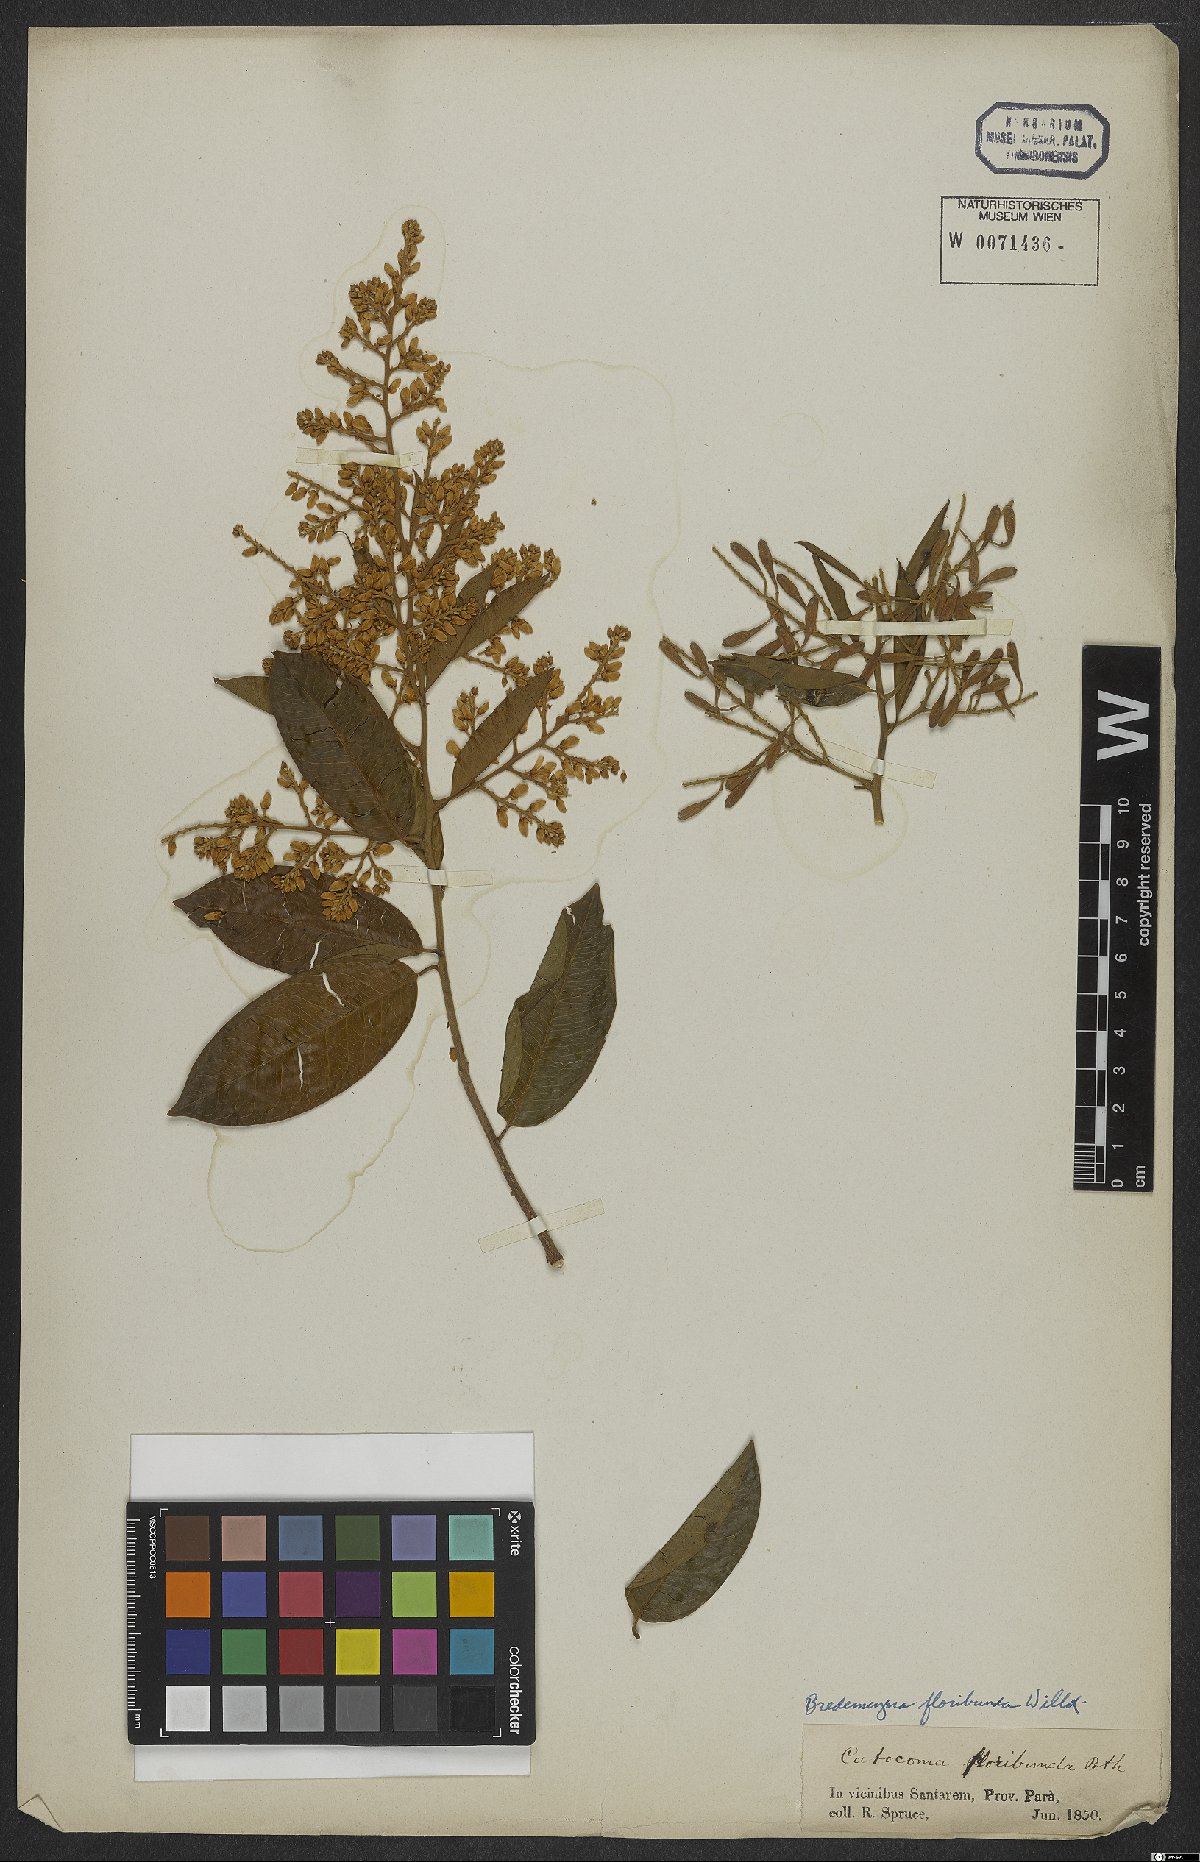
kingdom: Plantae
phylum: Tracheophyta
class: Magnoliopsida
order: Fabales
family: Polygalaceae
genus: Bredemeyera
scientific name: Bredemeyera floribunda
